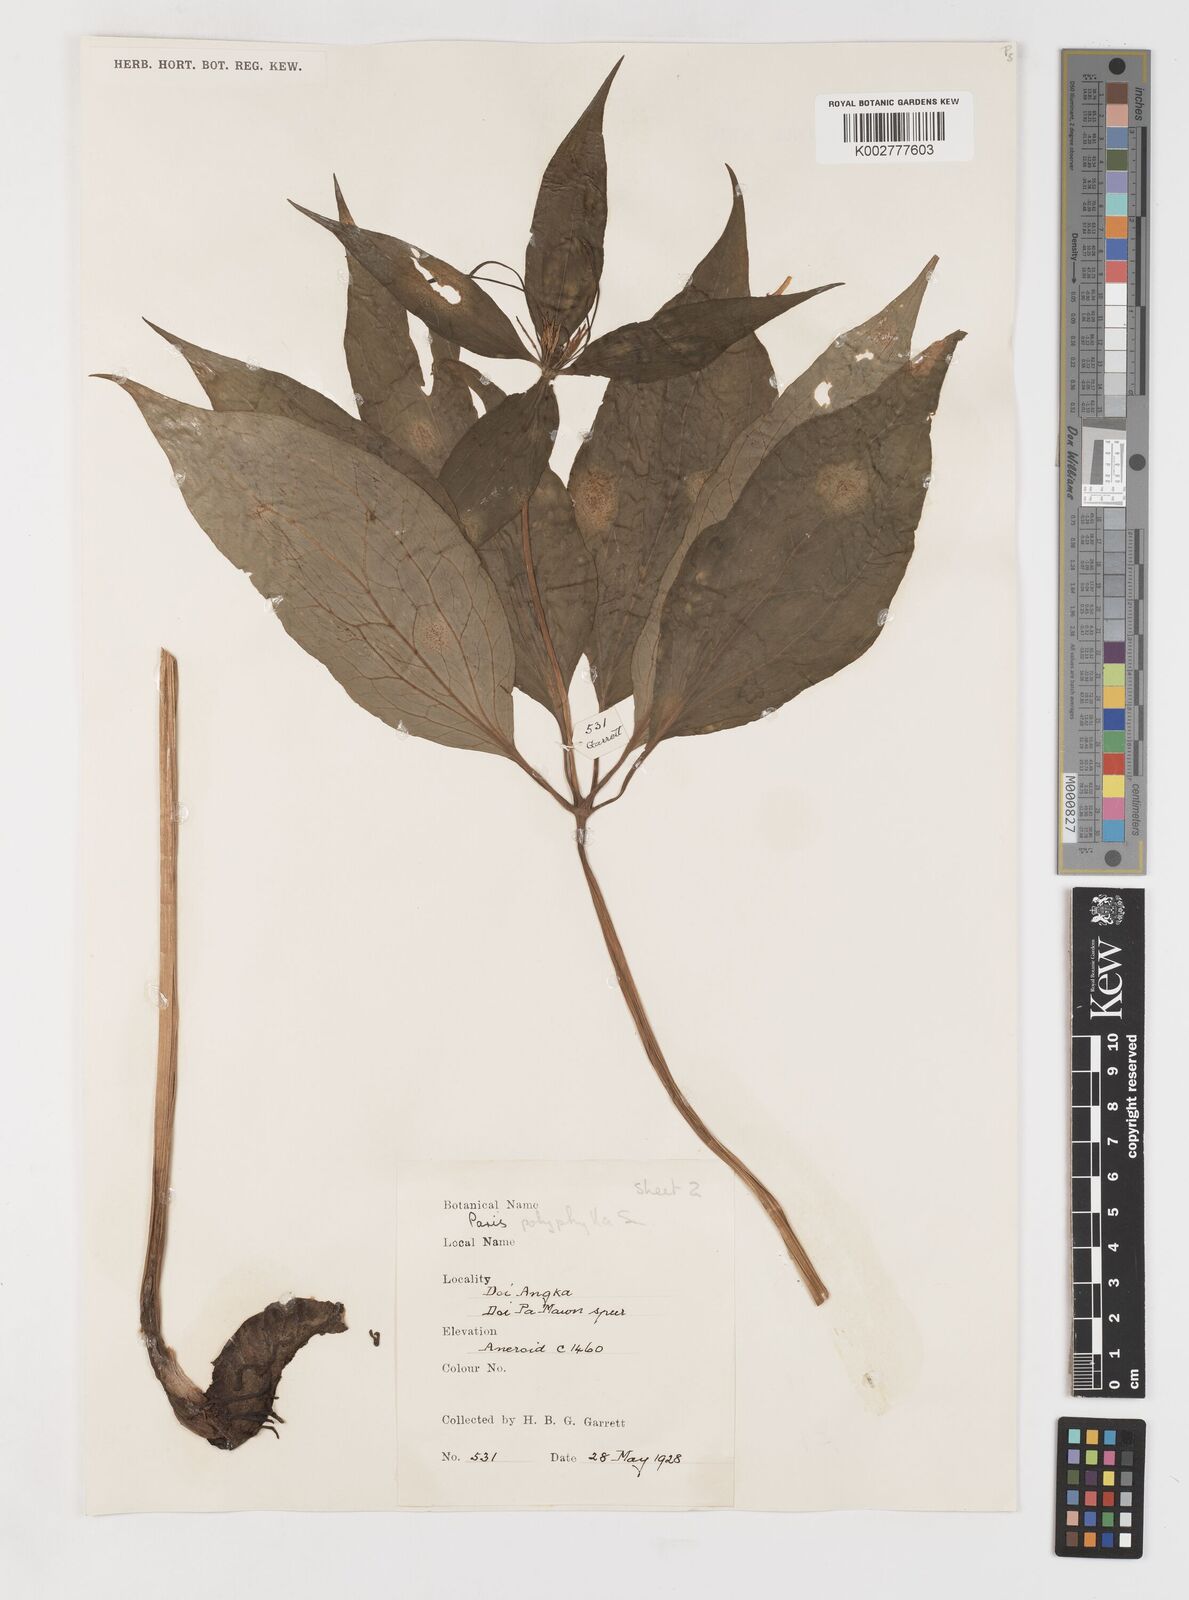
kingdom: Plantae
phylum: Tracheophyta
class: Liliopsida
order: Liliales
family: Melanthiaceae
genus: Paris
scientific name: Paris polyphylla
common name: Love apple
